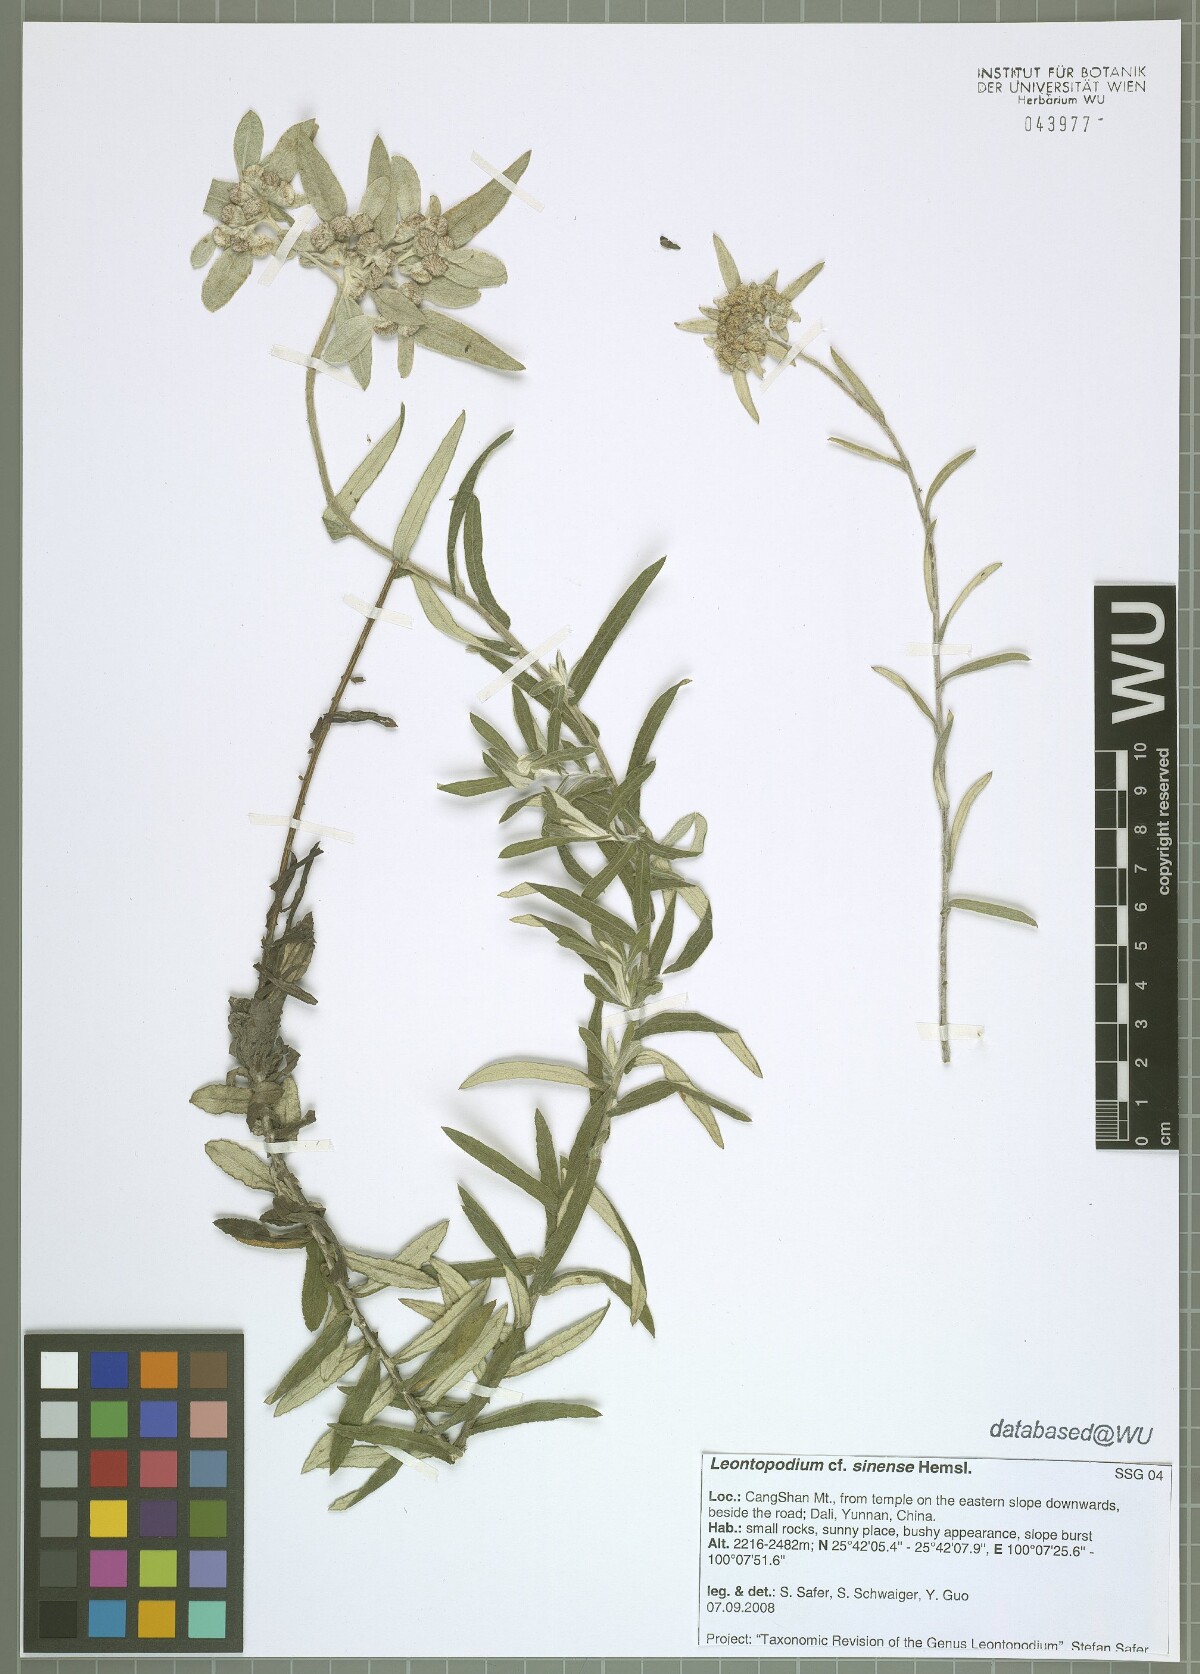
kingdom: Plantae
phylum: Tracheophyta
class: Magnoliopsida
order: Asterales
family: Asteraceae
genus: Leontopodium
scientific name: Leontopodium sinense
